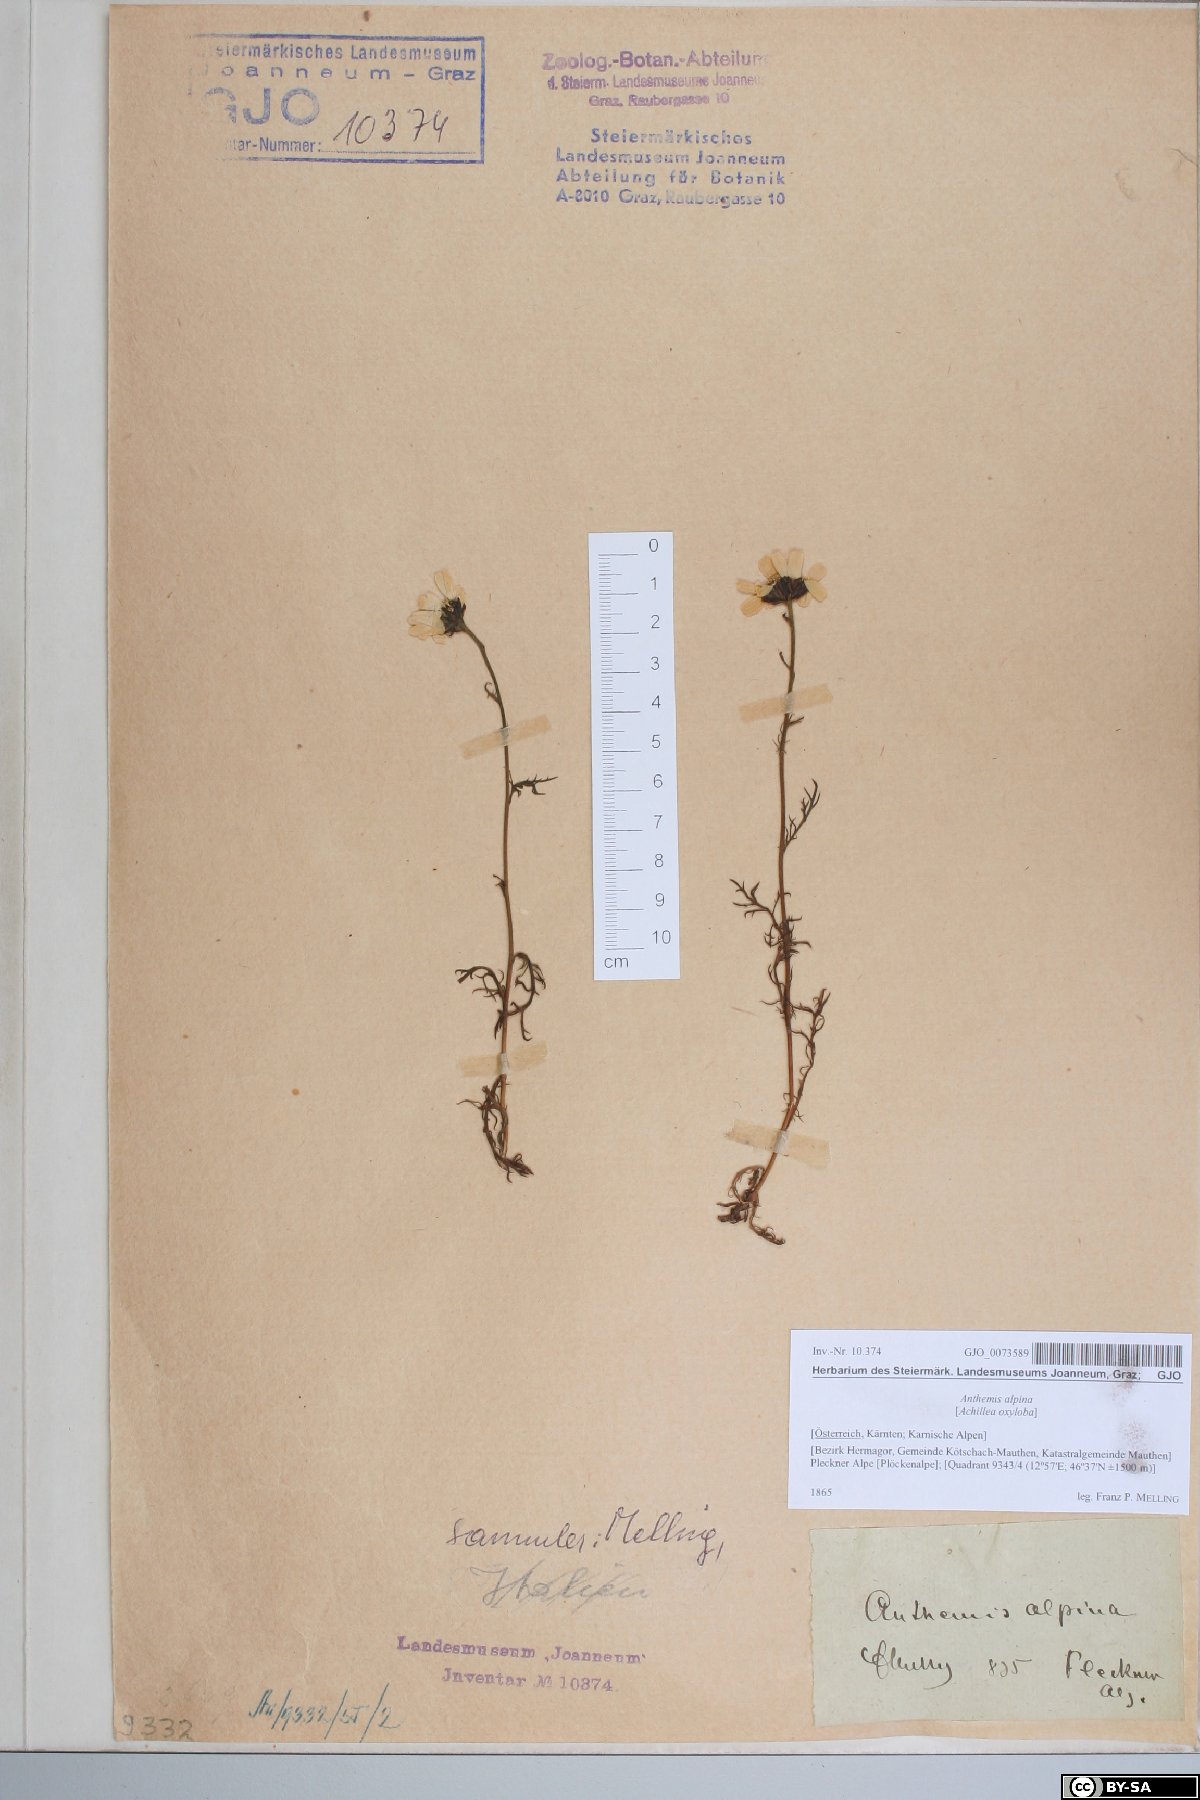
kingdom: Plantae
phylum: Tracheophyta
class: Magnoliopsida
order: Asterales
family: Asteraceae
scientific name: Asteraceae
